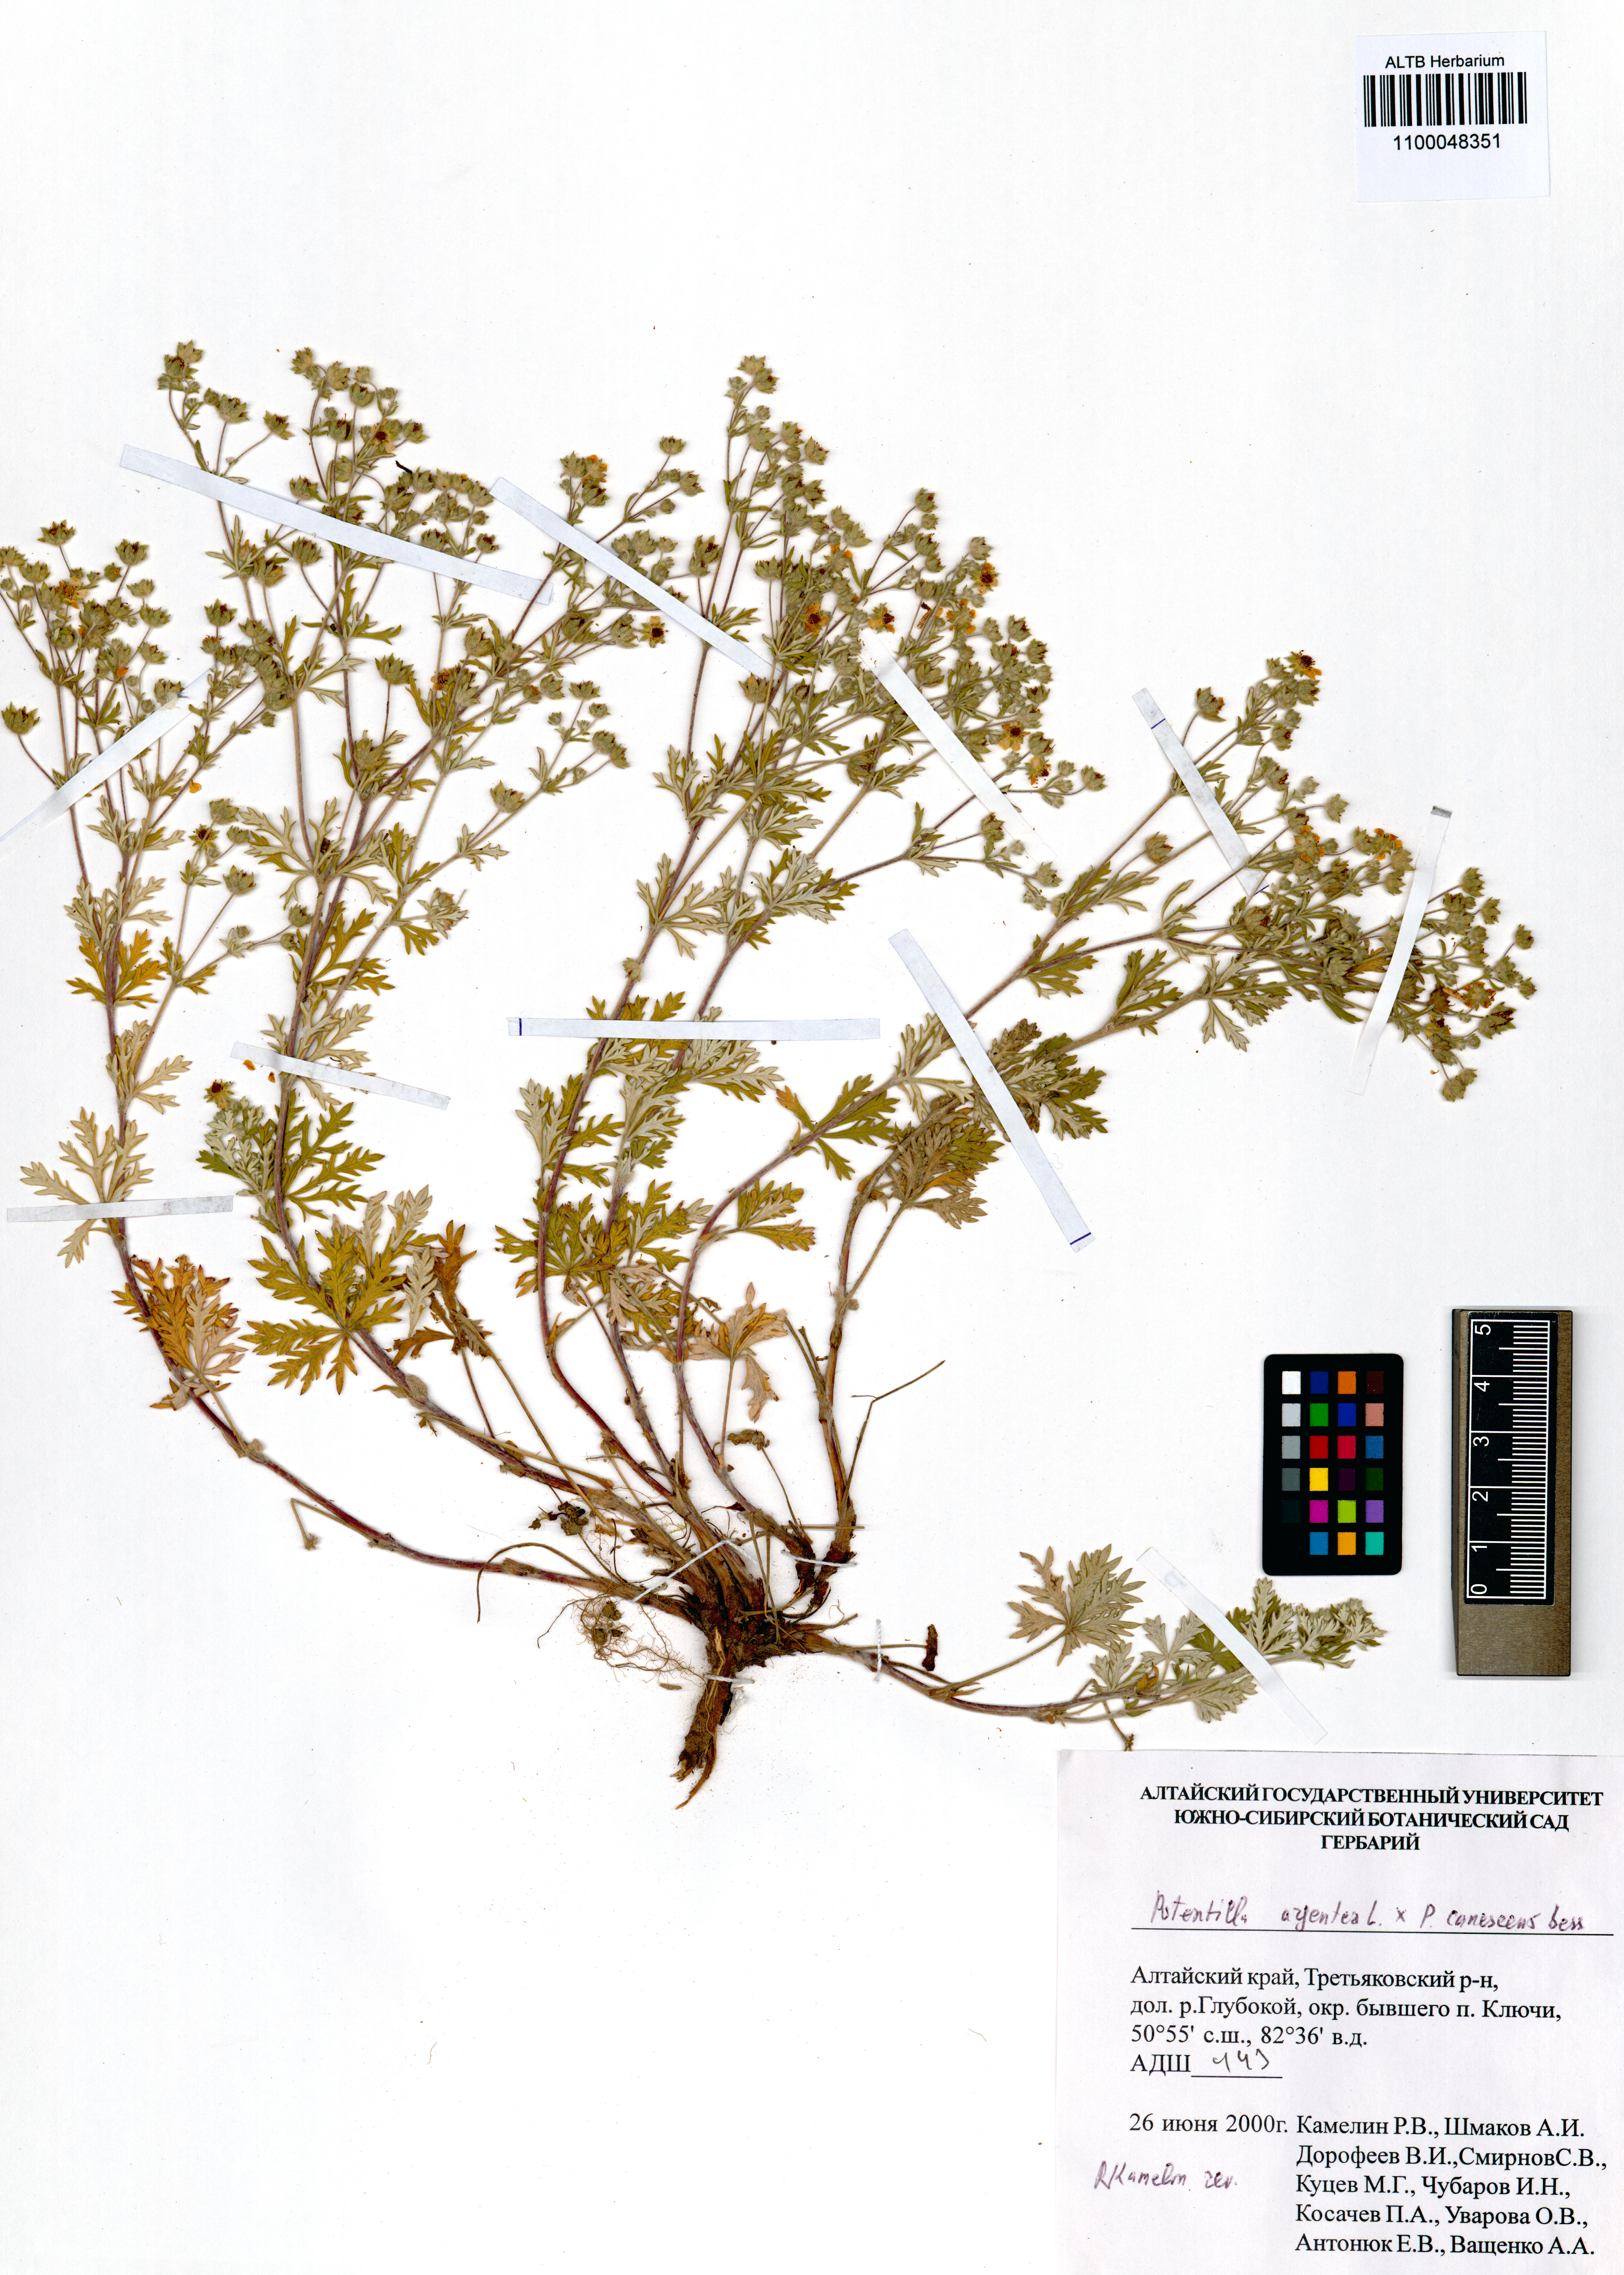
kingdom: Plantae
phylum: Tracheophyta
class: Magnoliopsida
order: Rosales
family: Rosaceae
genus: Potentilla
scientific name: Potentilla argentea
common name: Hoary cinquefoil
